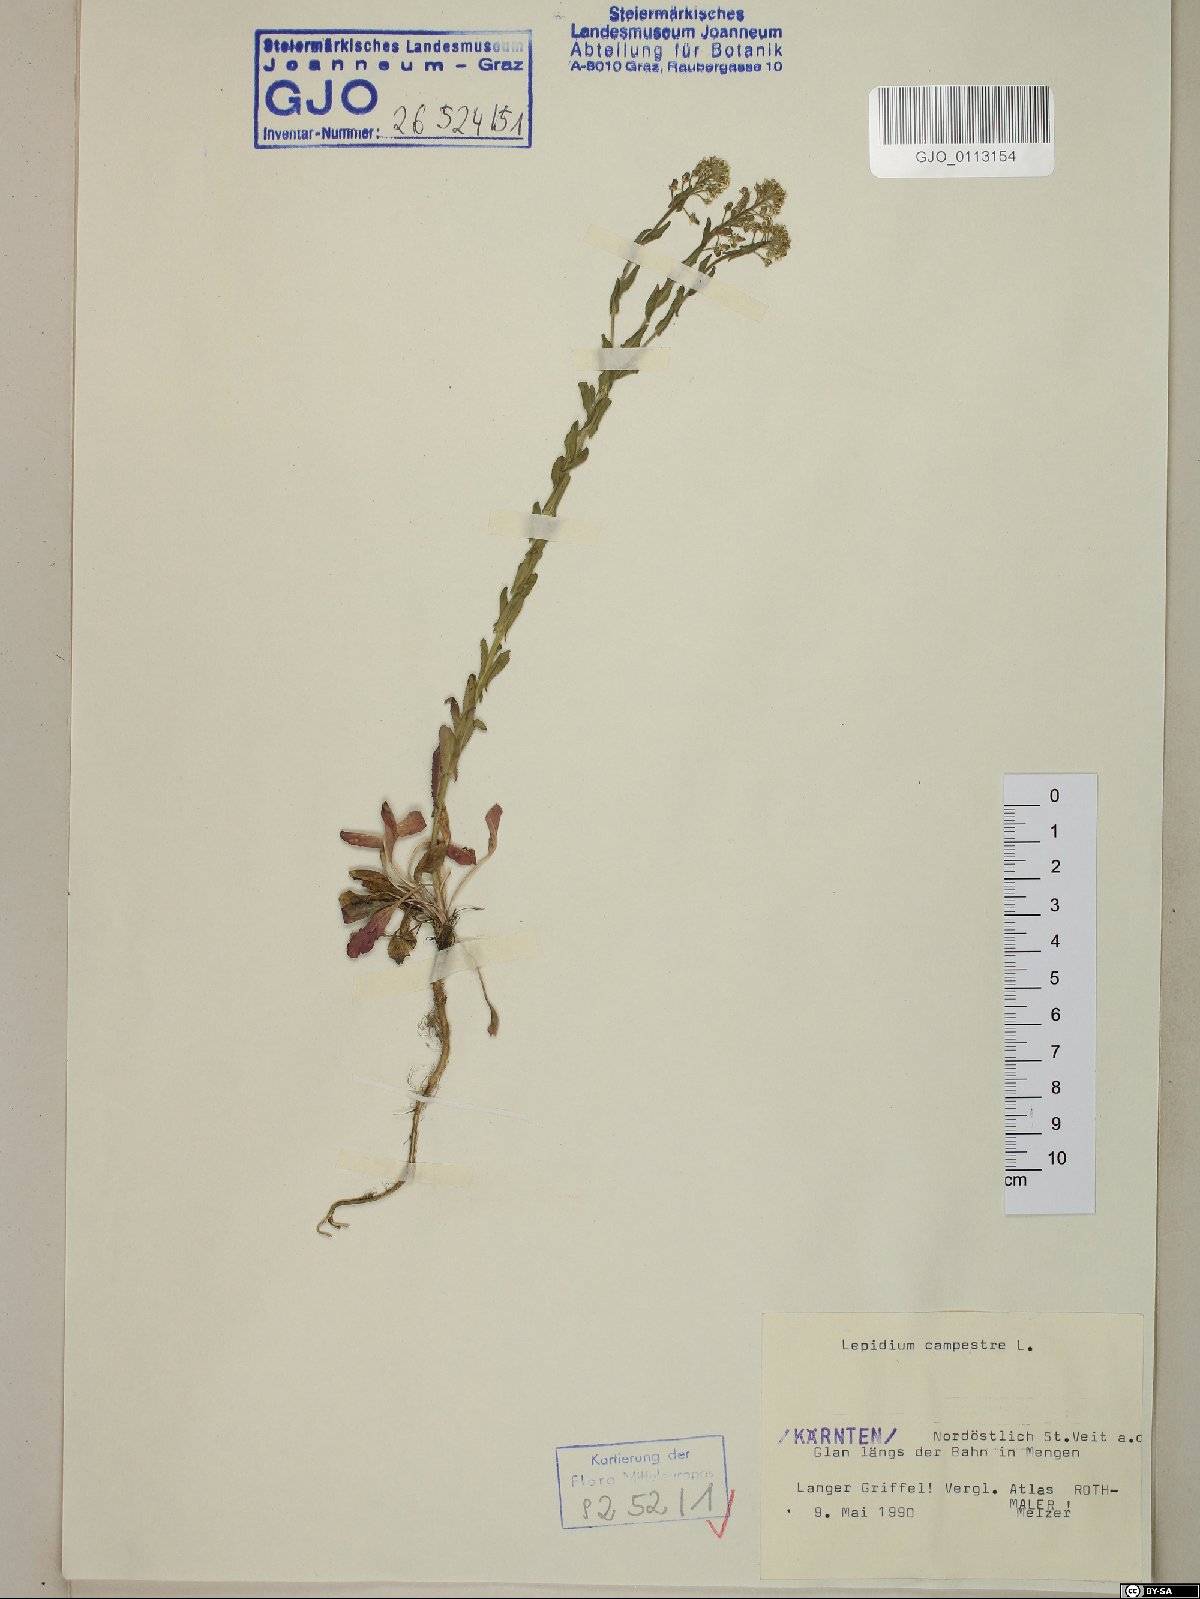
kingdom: Plantae
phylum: Tracheophyta
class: Magnoliopsida
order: Brassicales
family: Brassicaceae
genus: Lepidium
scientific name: Lepidium campestre
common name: Field pepperwort
